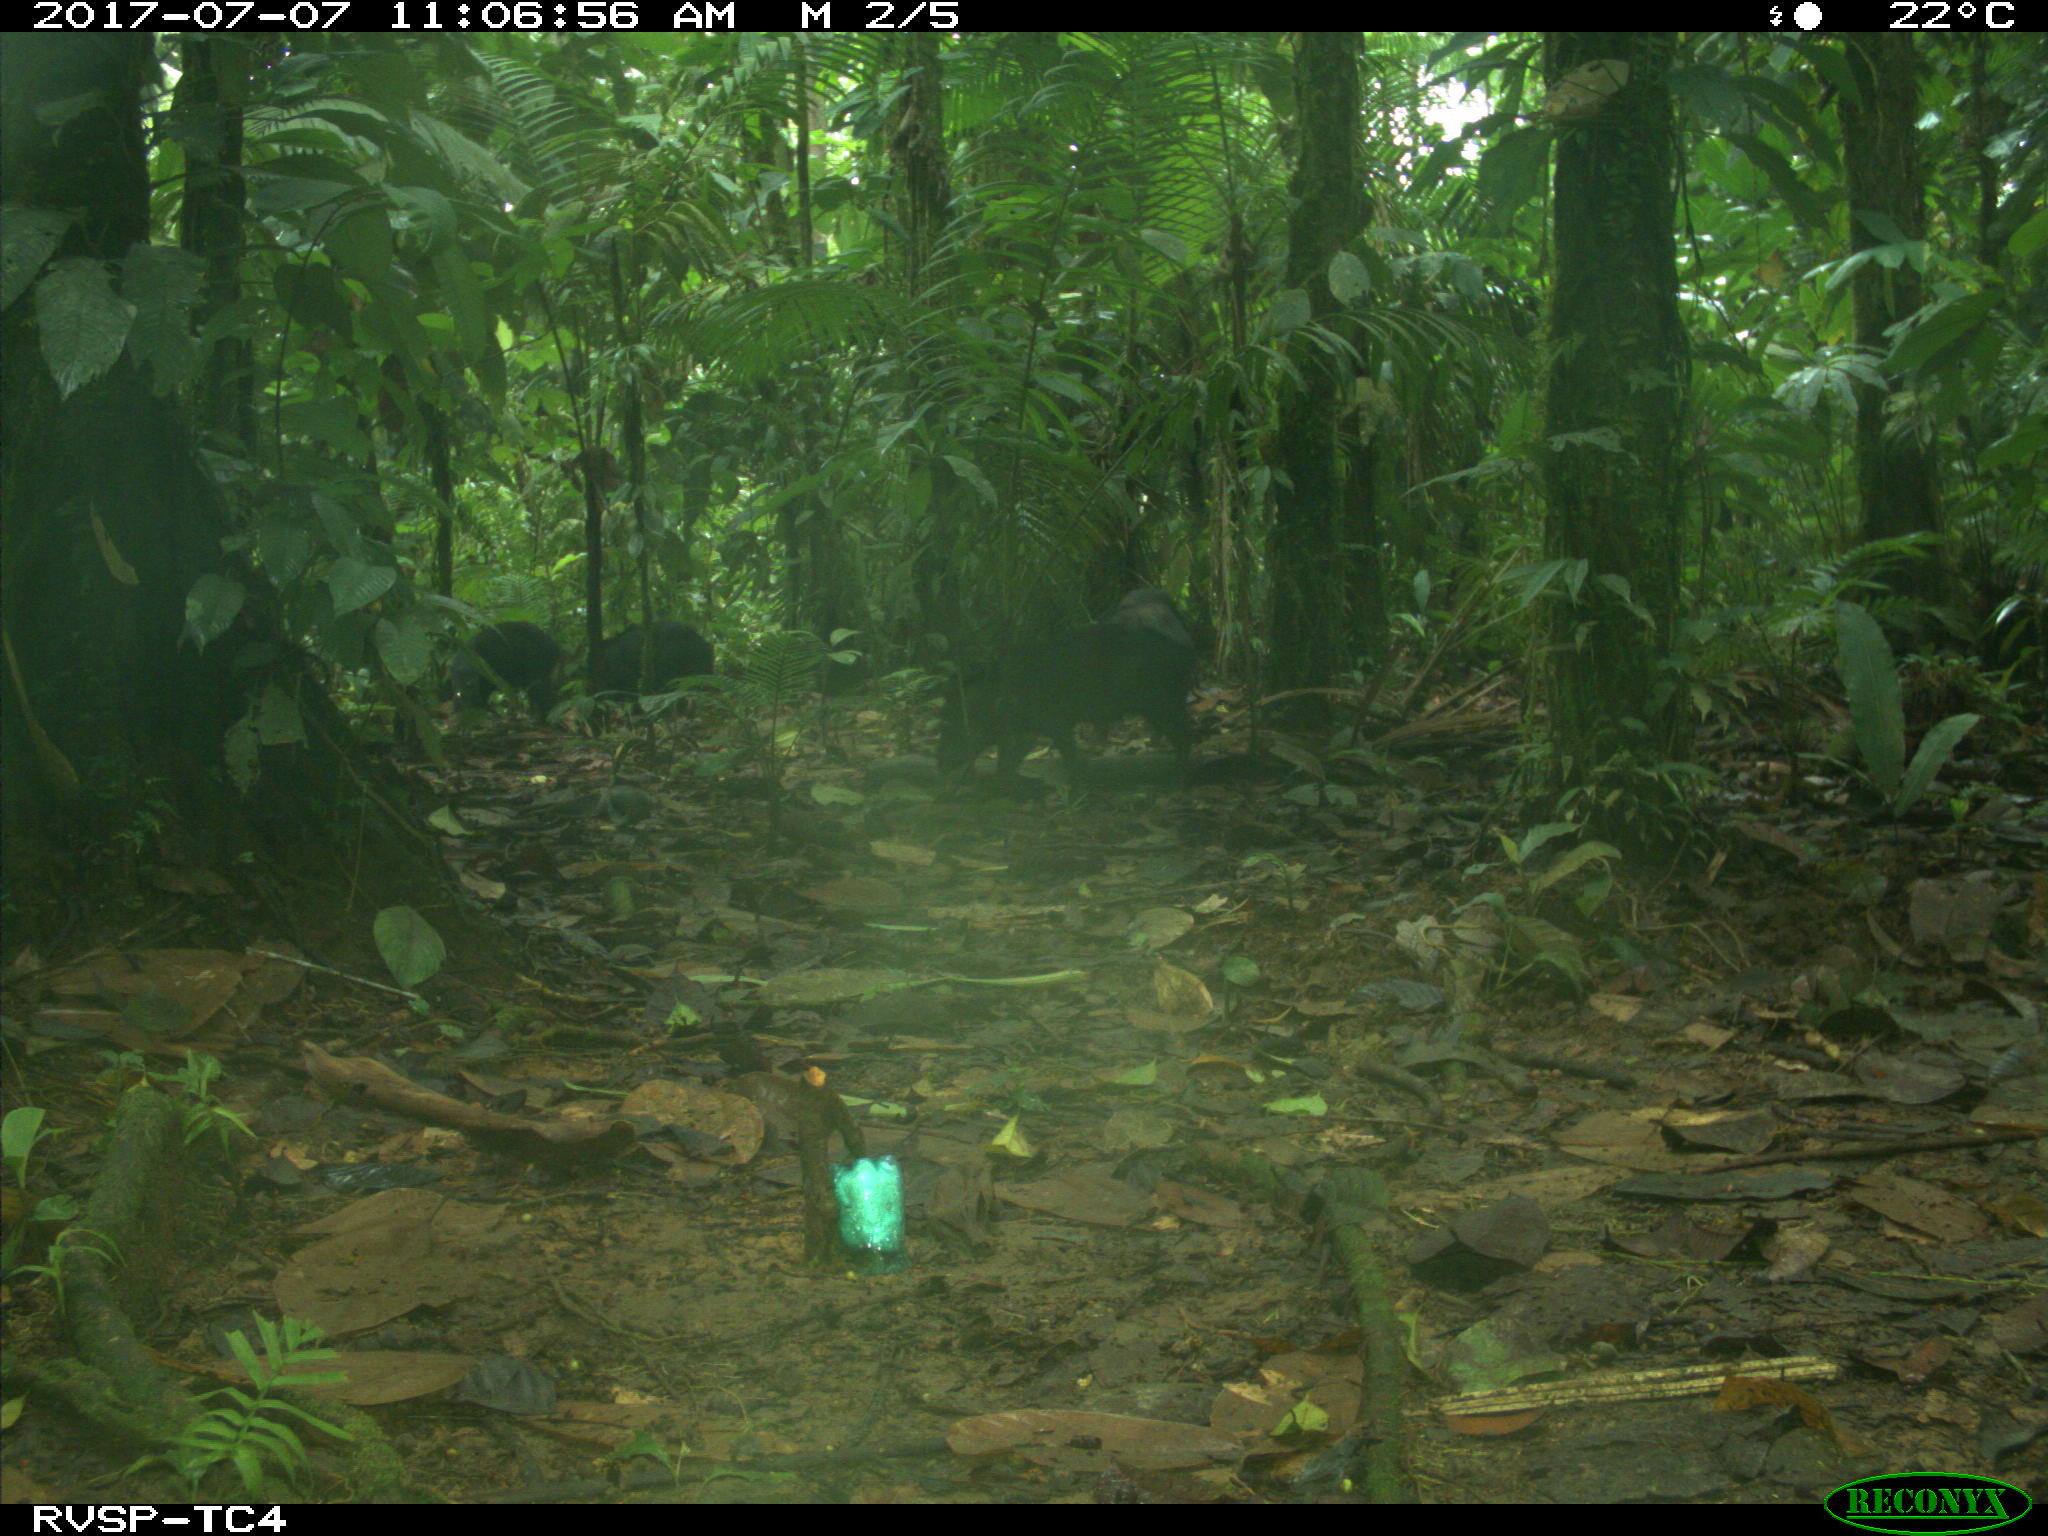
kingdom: Animalia
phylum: Chordata
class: Mammalia
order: Artiodactyla
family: Tayassuidae
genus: Tayassu
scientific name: Tayassu pecari
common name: White-lipped peccary
